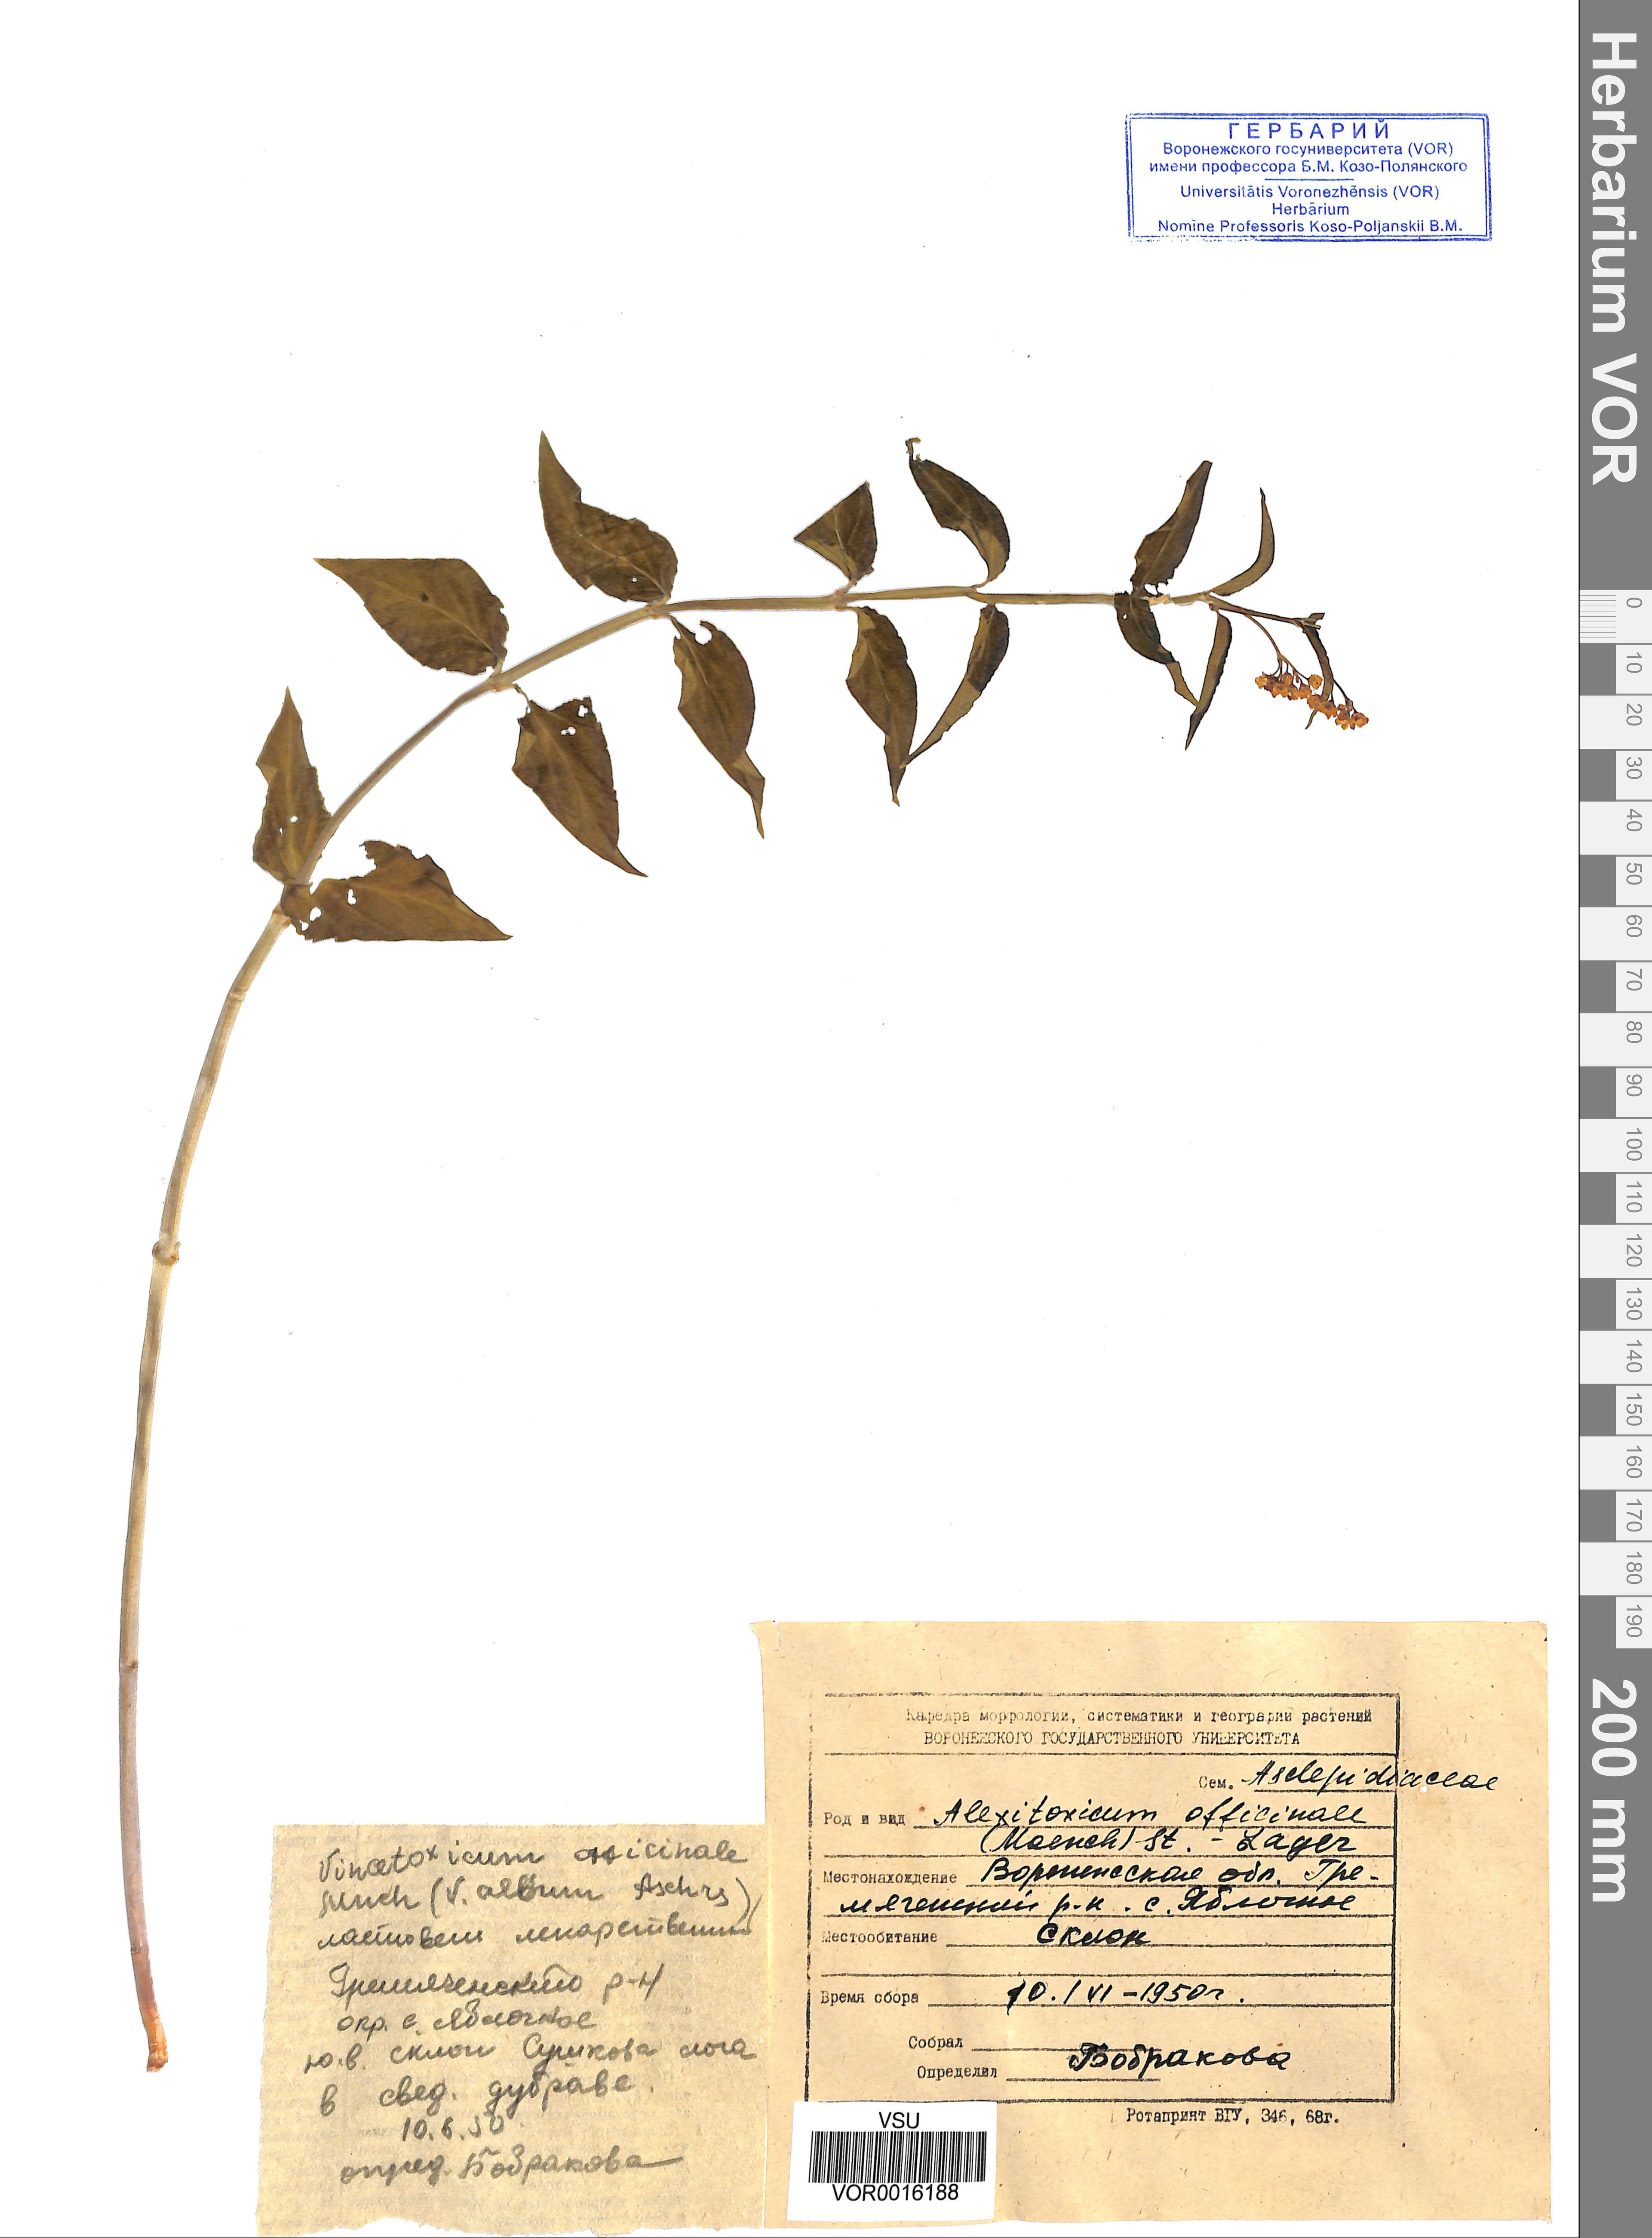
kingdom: Plantae
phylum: Tracheophyta
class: Magnoliopsida
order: Gentianales
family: Apocynaceae
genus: Vincetoxicum
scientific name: Vincetoxicum hirundinaria
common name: White swallowwort
